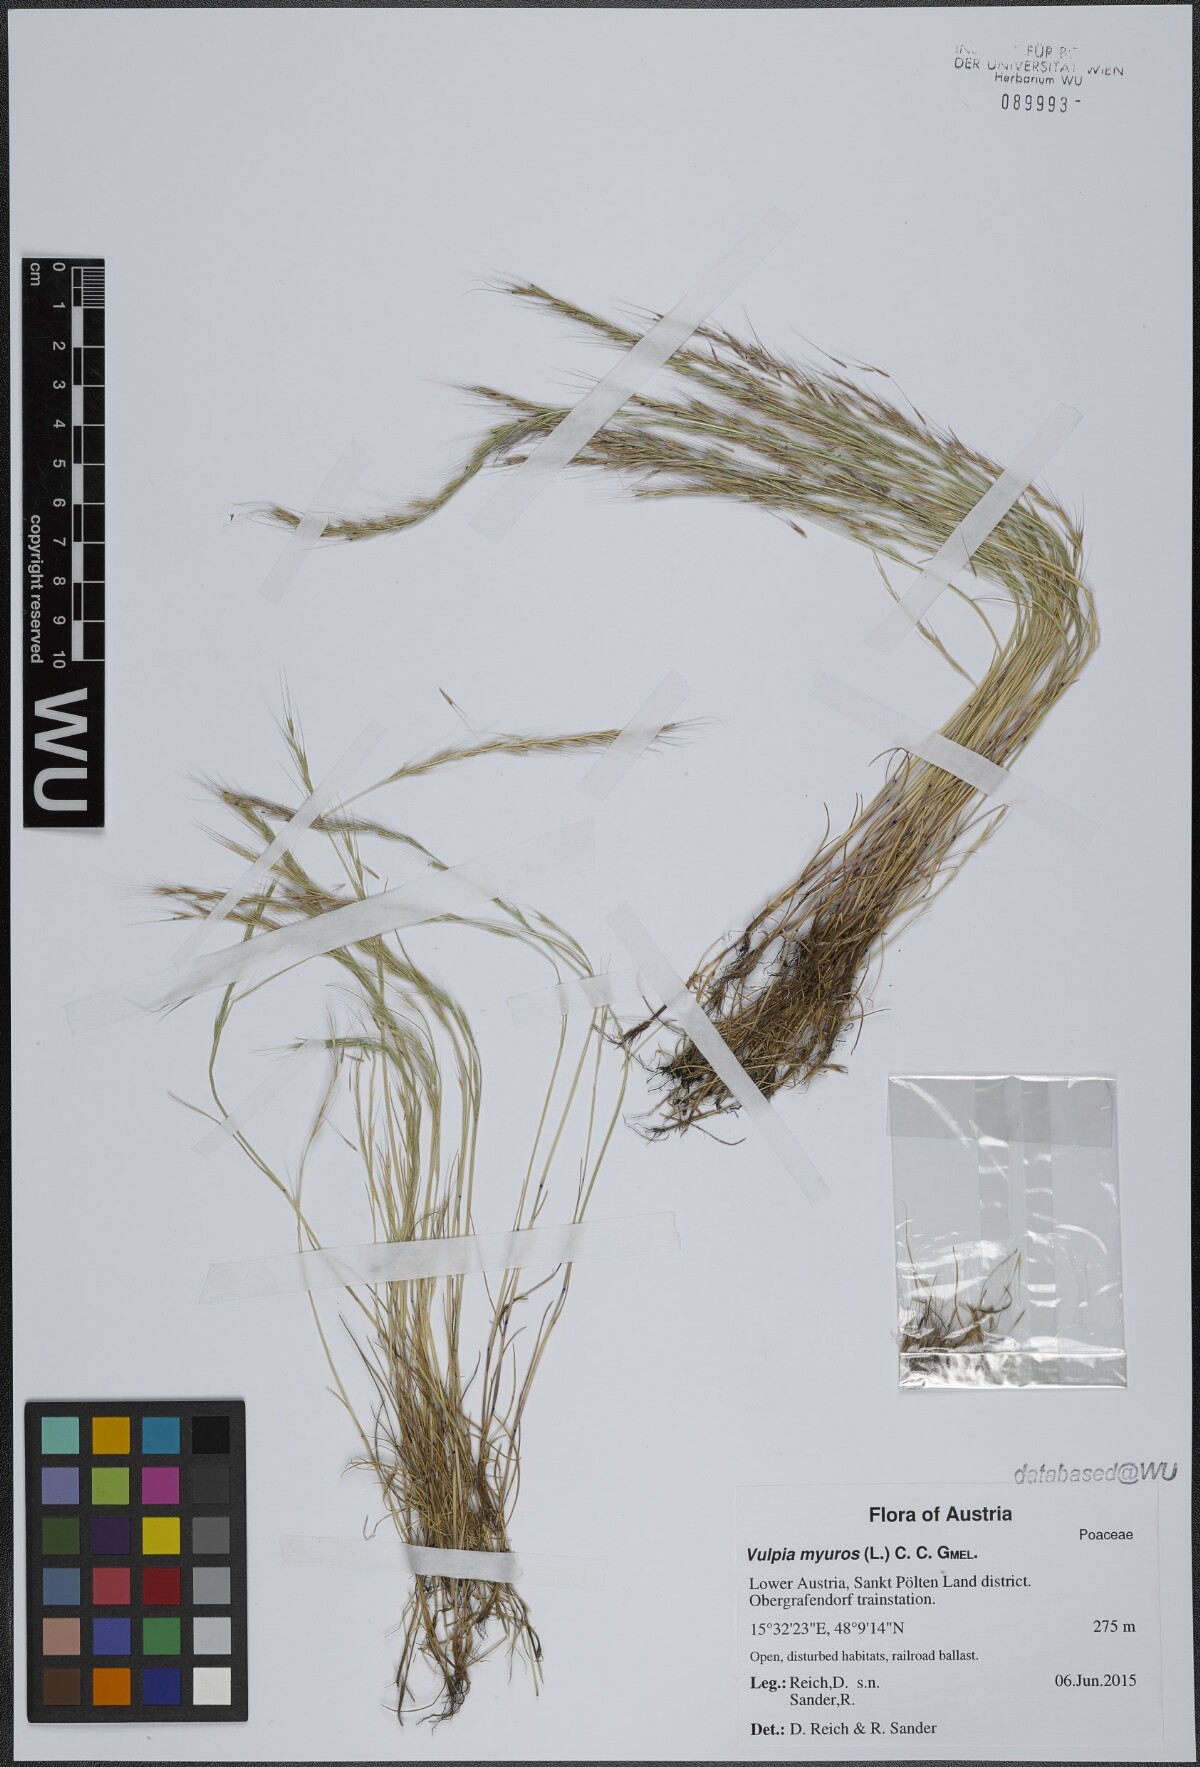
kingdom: Plantae
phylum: Tracheophyta
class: Liliopsida
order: Poales
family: Poaceae
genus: Festuca
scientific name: Festuca myuros
